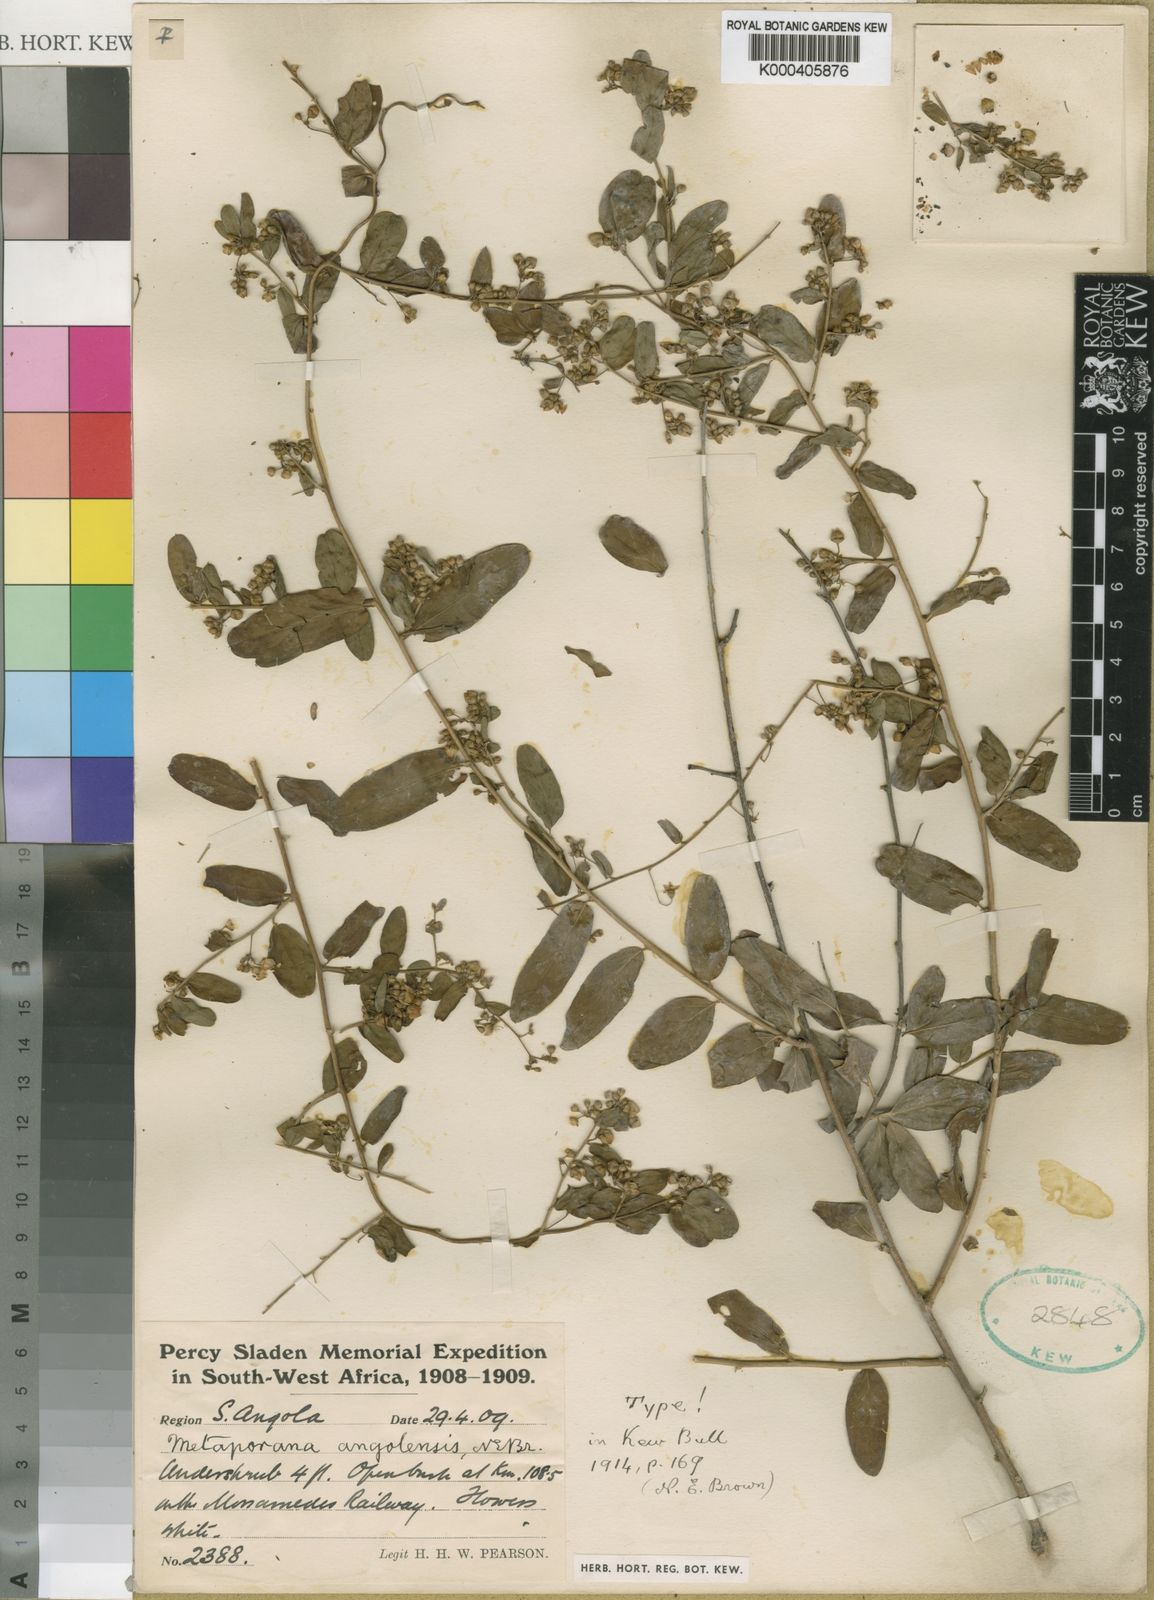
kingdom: Plantae
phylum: Tracheophyta
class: Magnoliopsida
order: Solanales
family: Convolvulaceae
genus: Seddera
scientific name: Seddera schizantha
